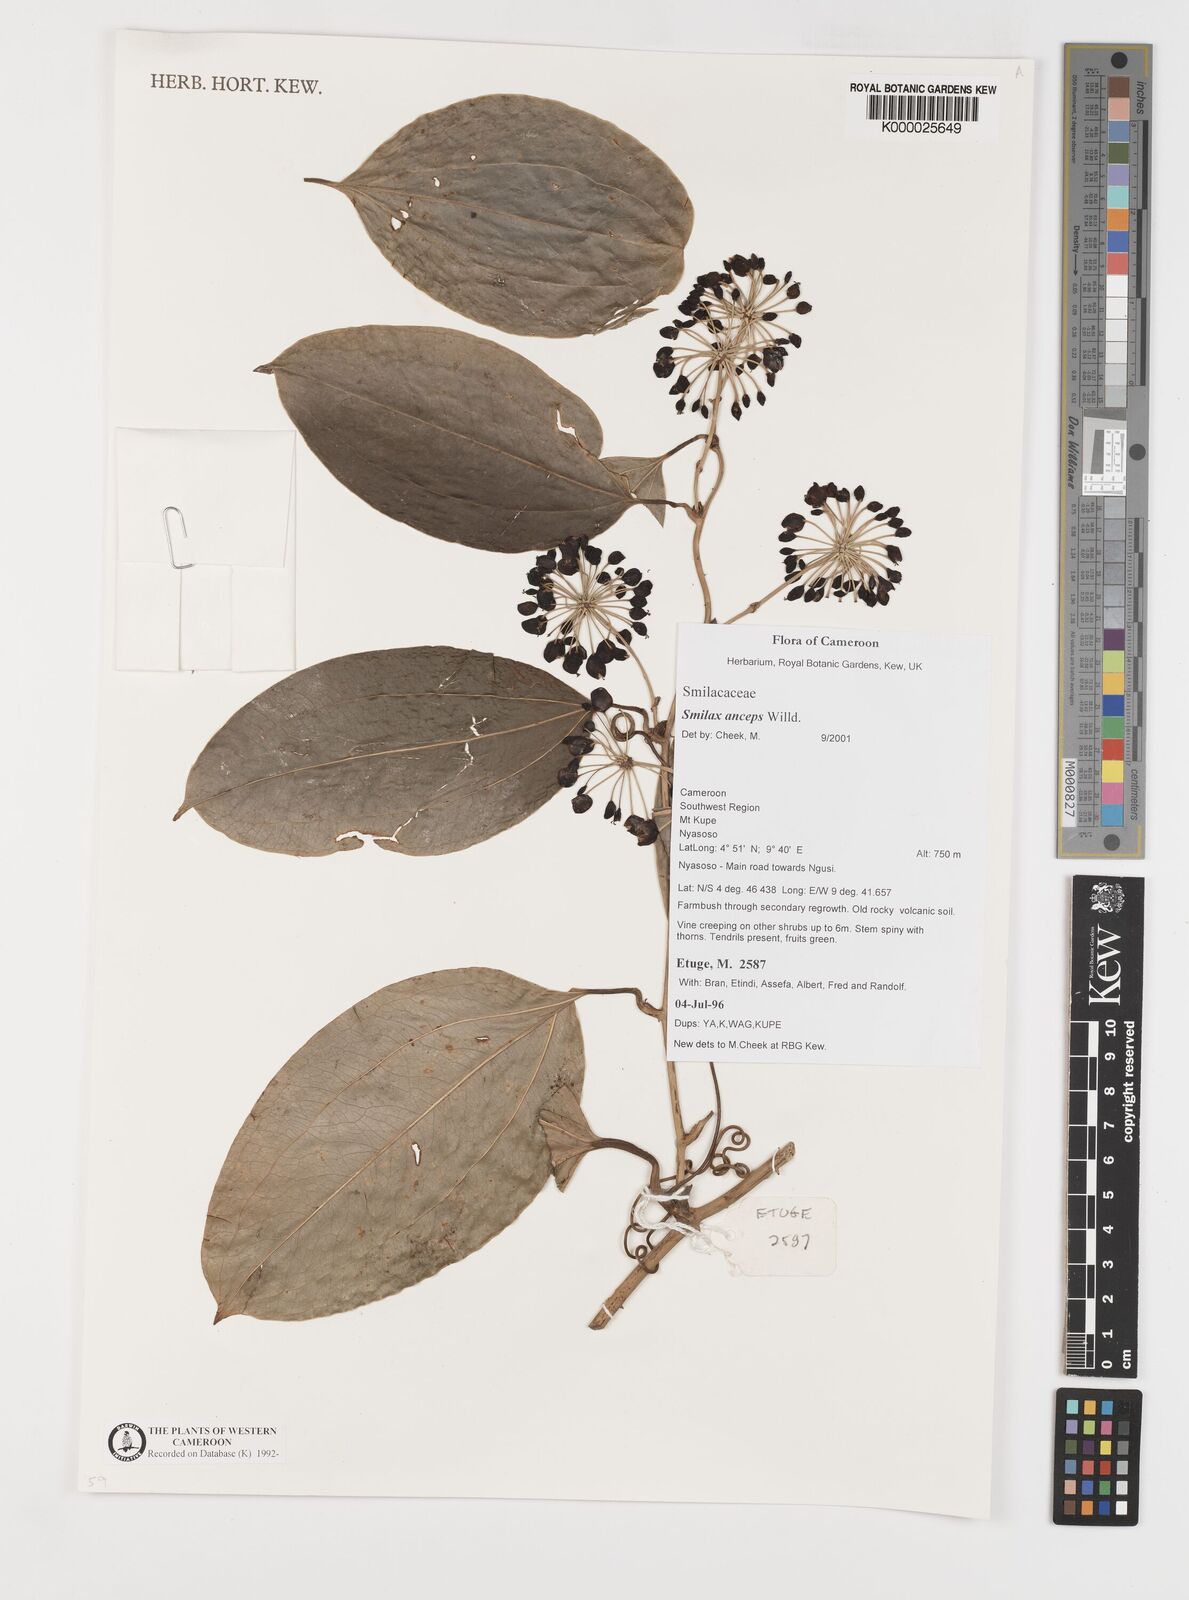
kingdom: Plantae
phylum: Tracheophyta
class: Liliopsida
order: Liliales
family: Smilacaceae
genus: Smilax
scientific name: Smilax anceps
